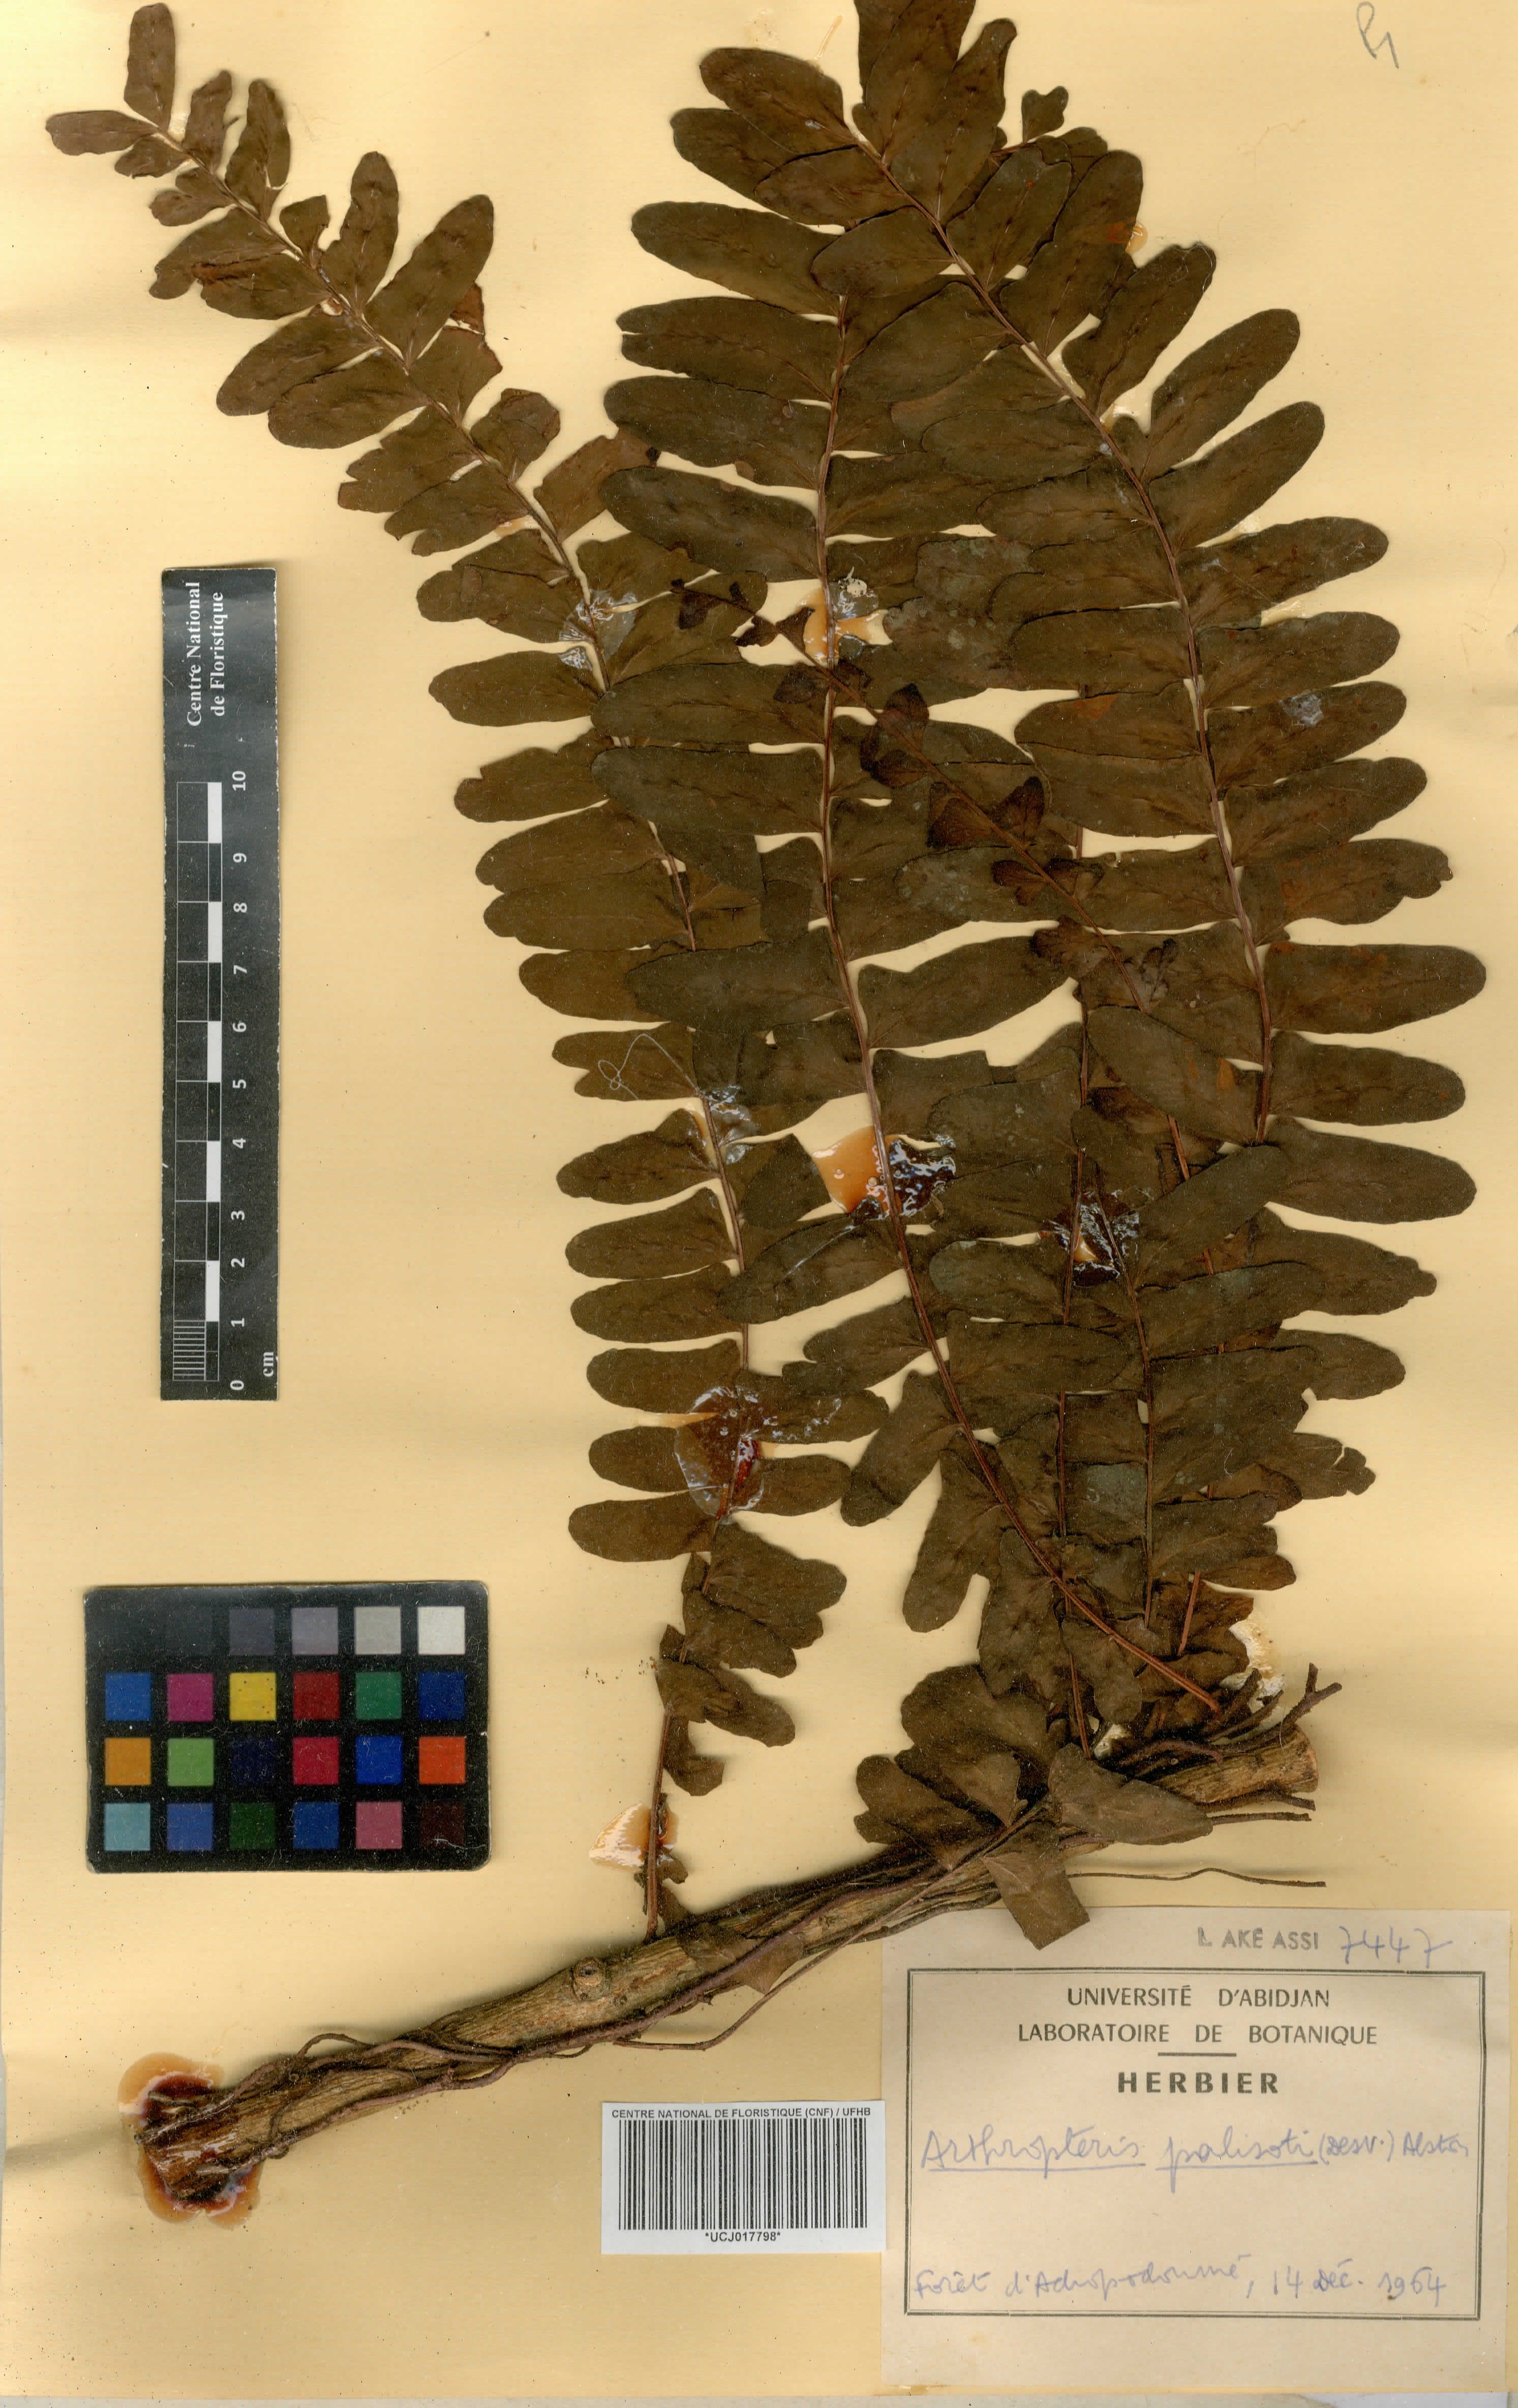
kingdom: Plantae
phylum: Tracheophyta
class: Polypodiopsida
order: Polypodiales
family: Tectariaceae
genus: Arthropteris
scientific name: Arthropteris palisotii
